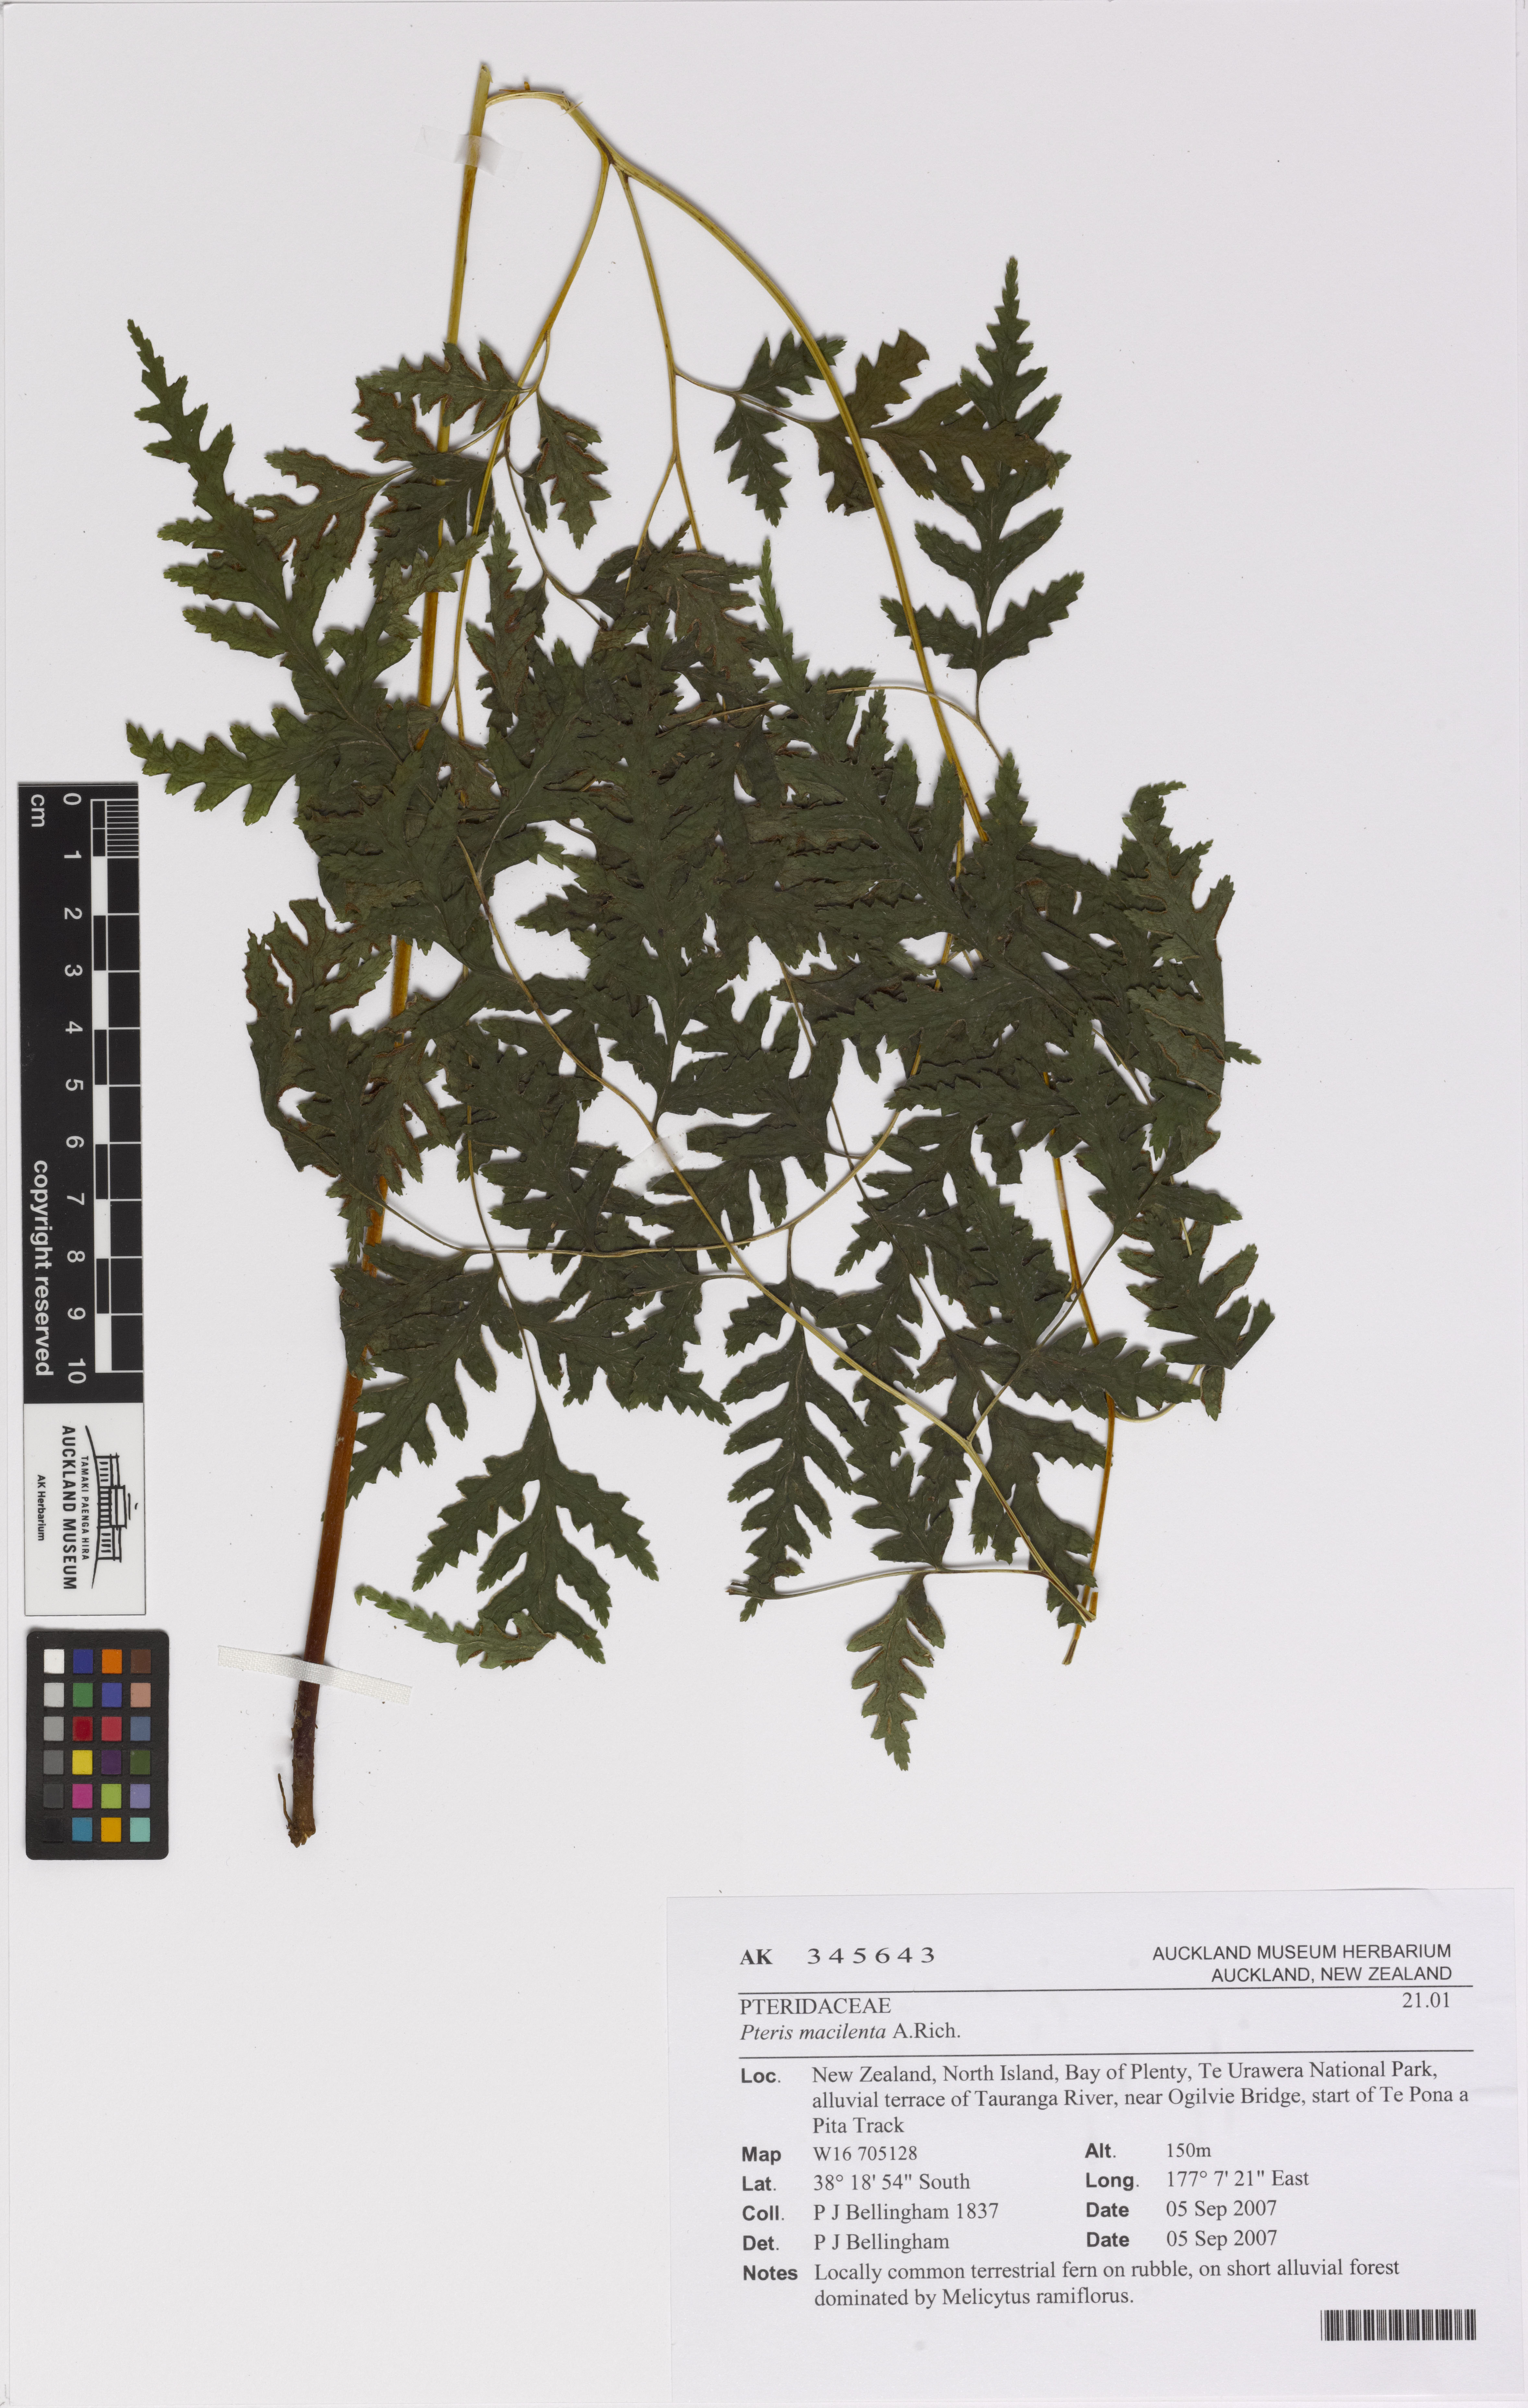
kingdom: Plantae
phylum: Tracheophyta
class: Polypodiopsida
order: Polypodiales
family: Pteridaceae
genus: Pteris
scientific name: Pteris macilenta
